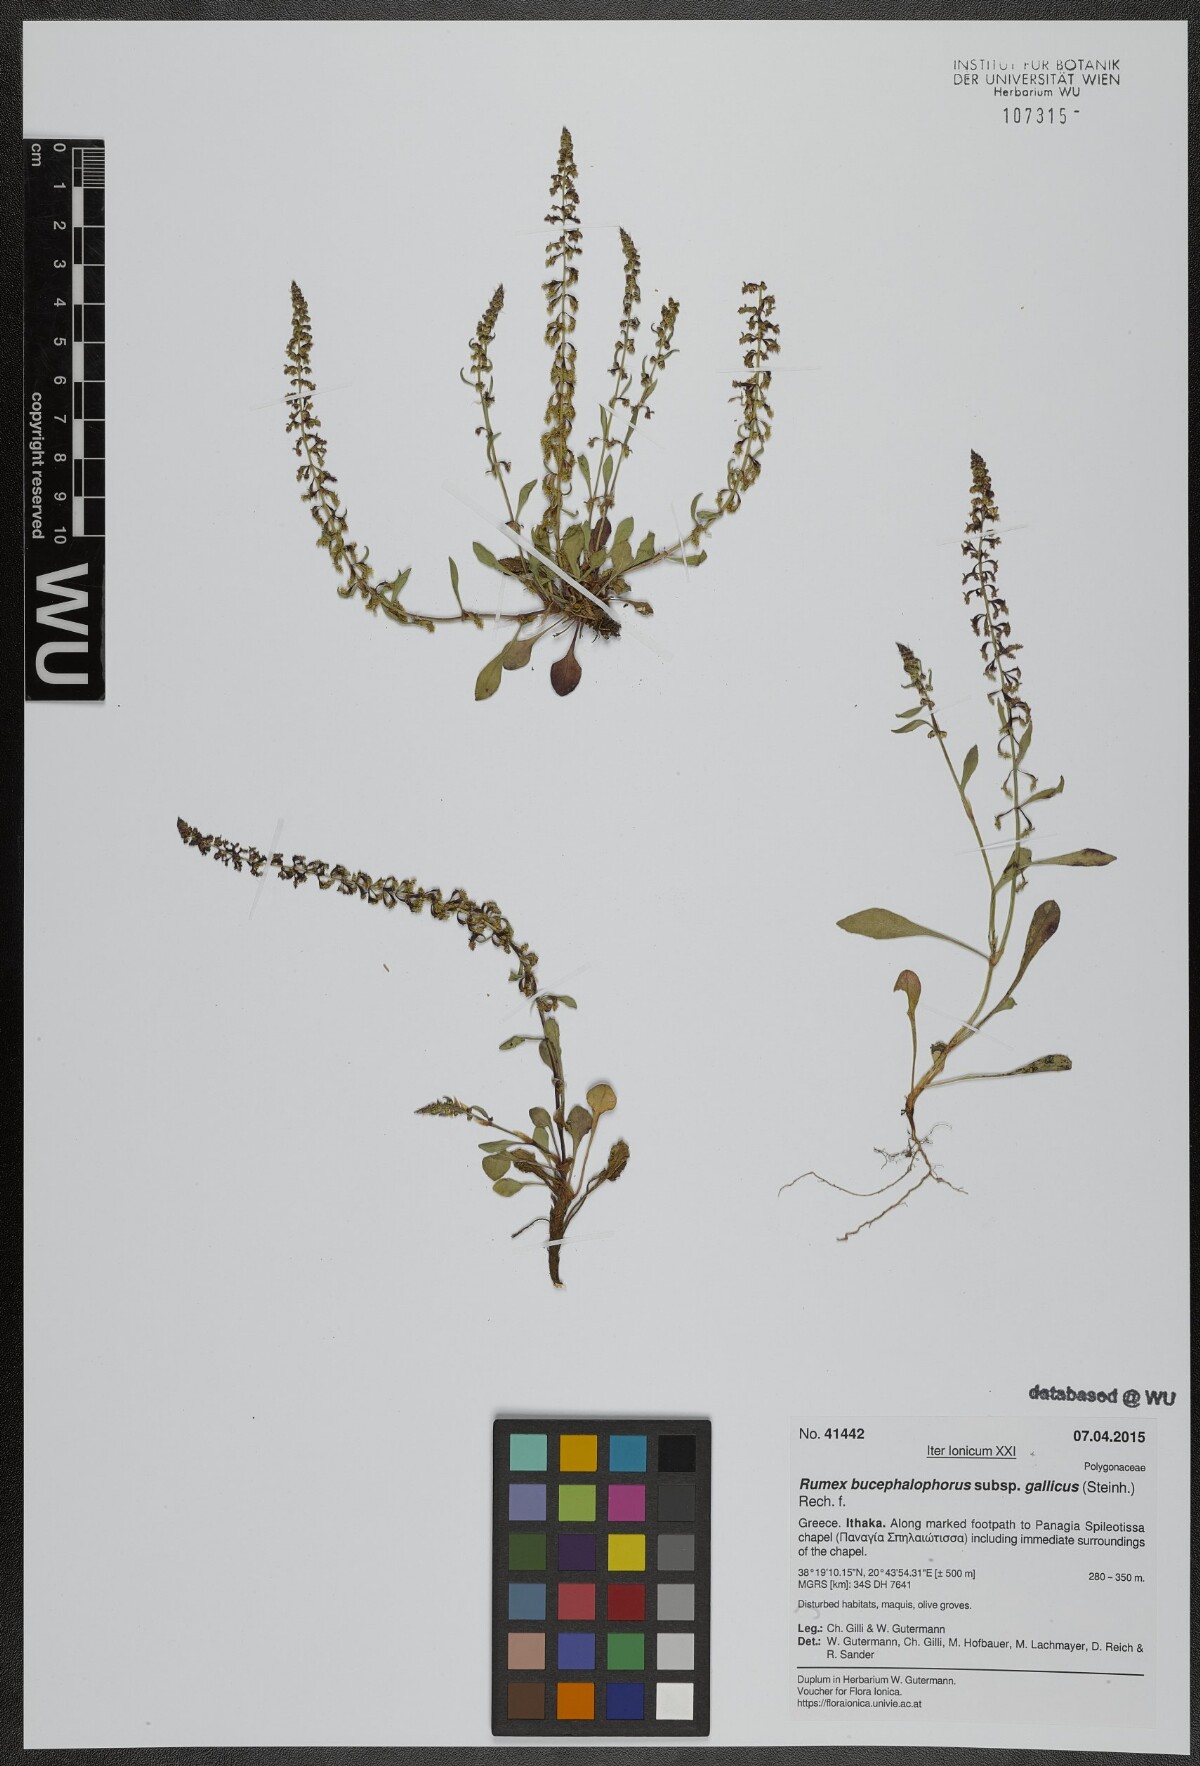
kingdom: Plantae
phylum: Tracheophyta
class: Magnoliopsida
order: Caryophyllales
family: Polygonaceae
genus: Rumex
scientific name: Rumex bucephalophorus
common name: Red dock
